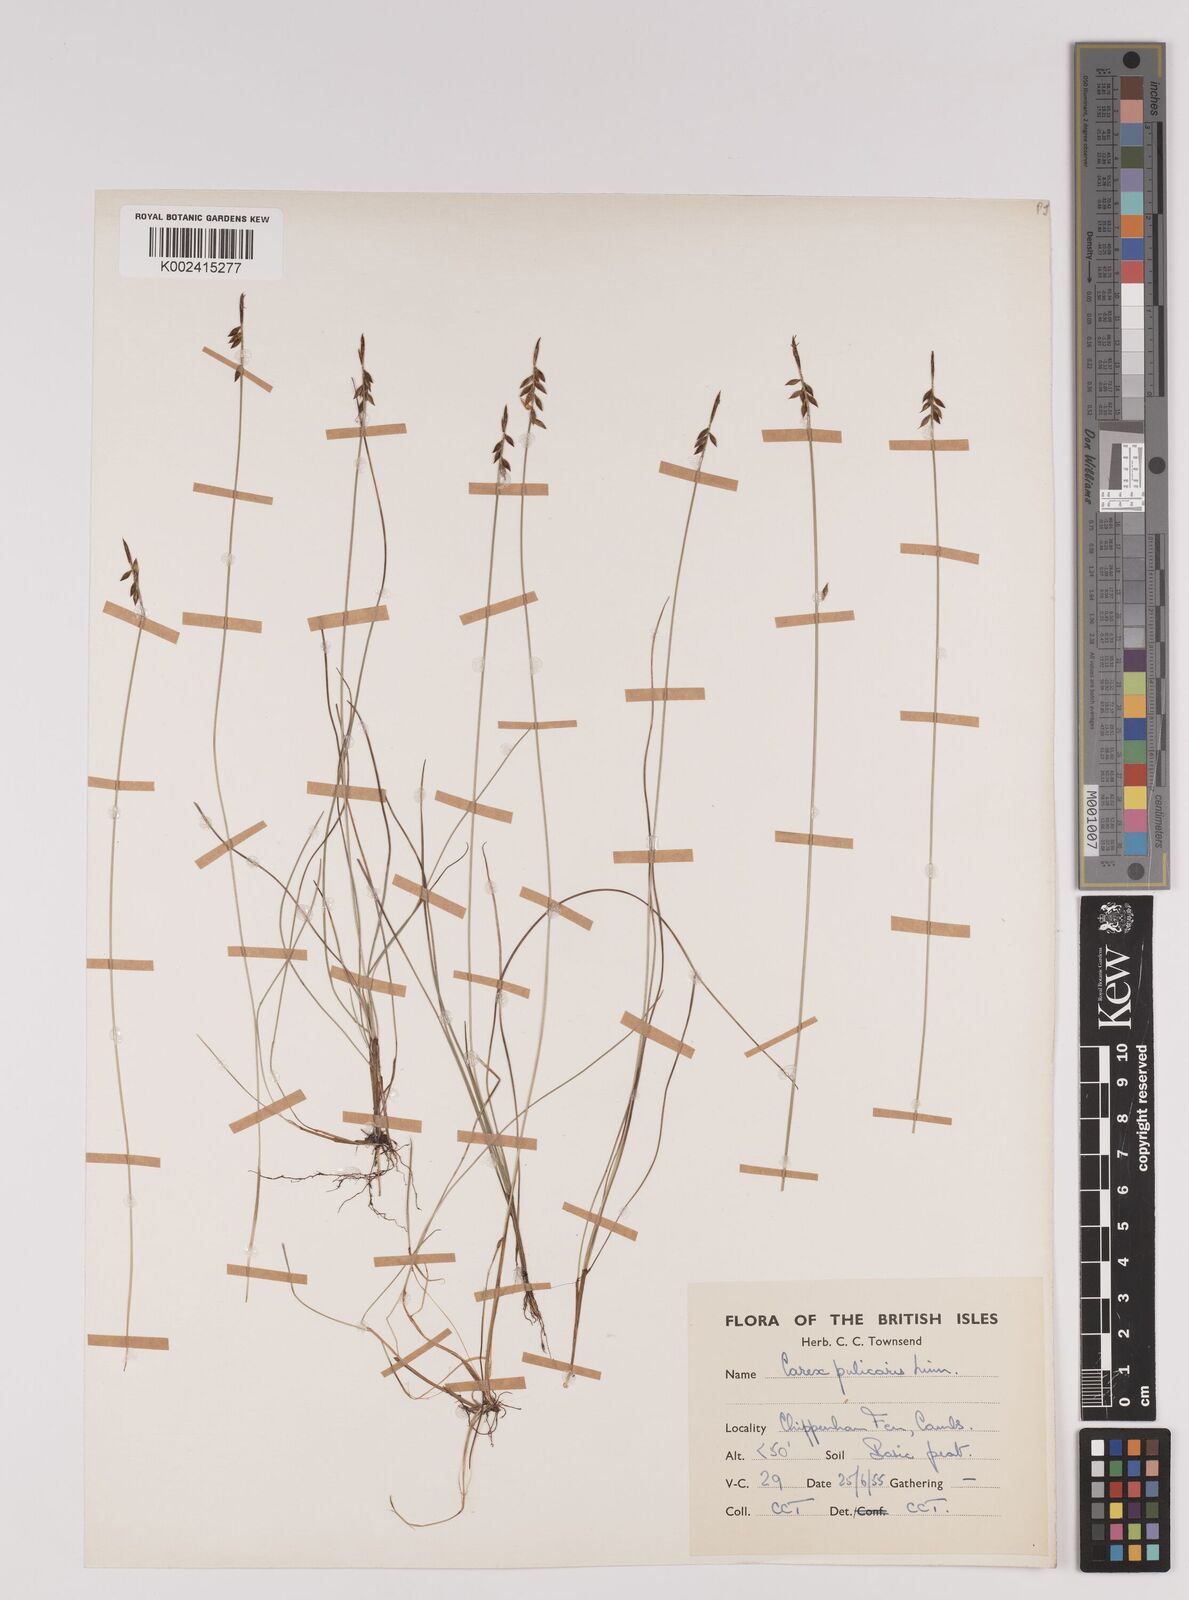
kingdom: Plantae
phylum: Tracheophyta
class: Liliopsida
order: Poales
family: Cyperaceae
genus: Carex
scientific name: Carex pulicaris
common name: Flea sedge
